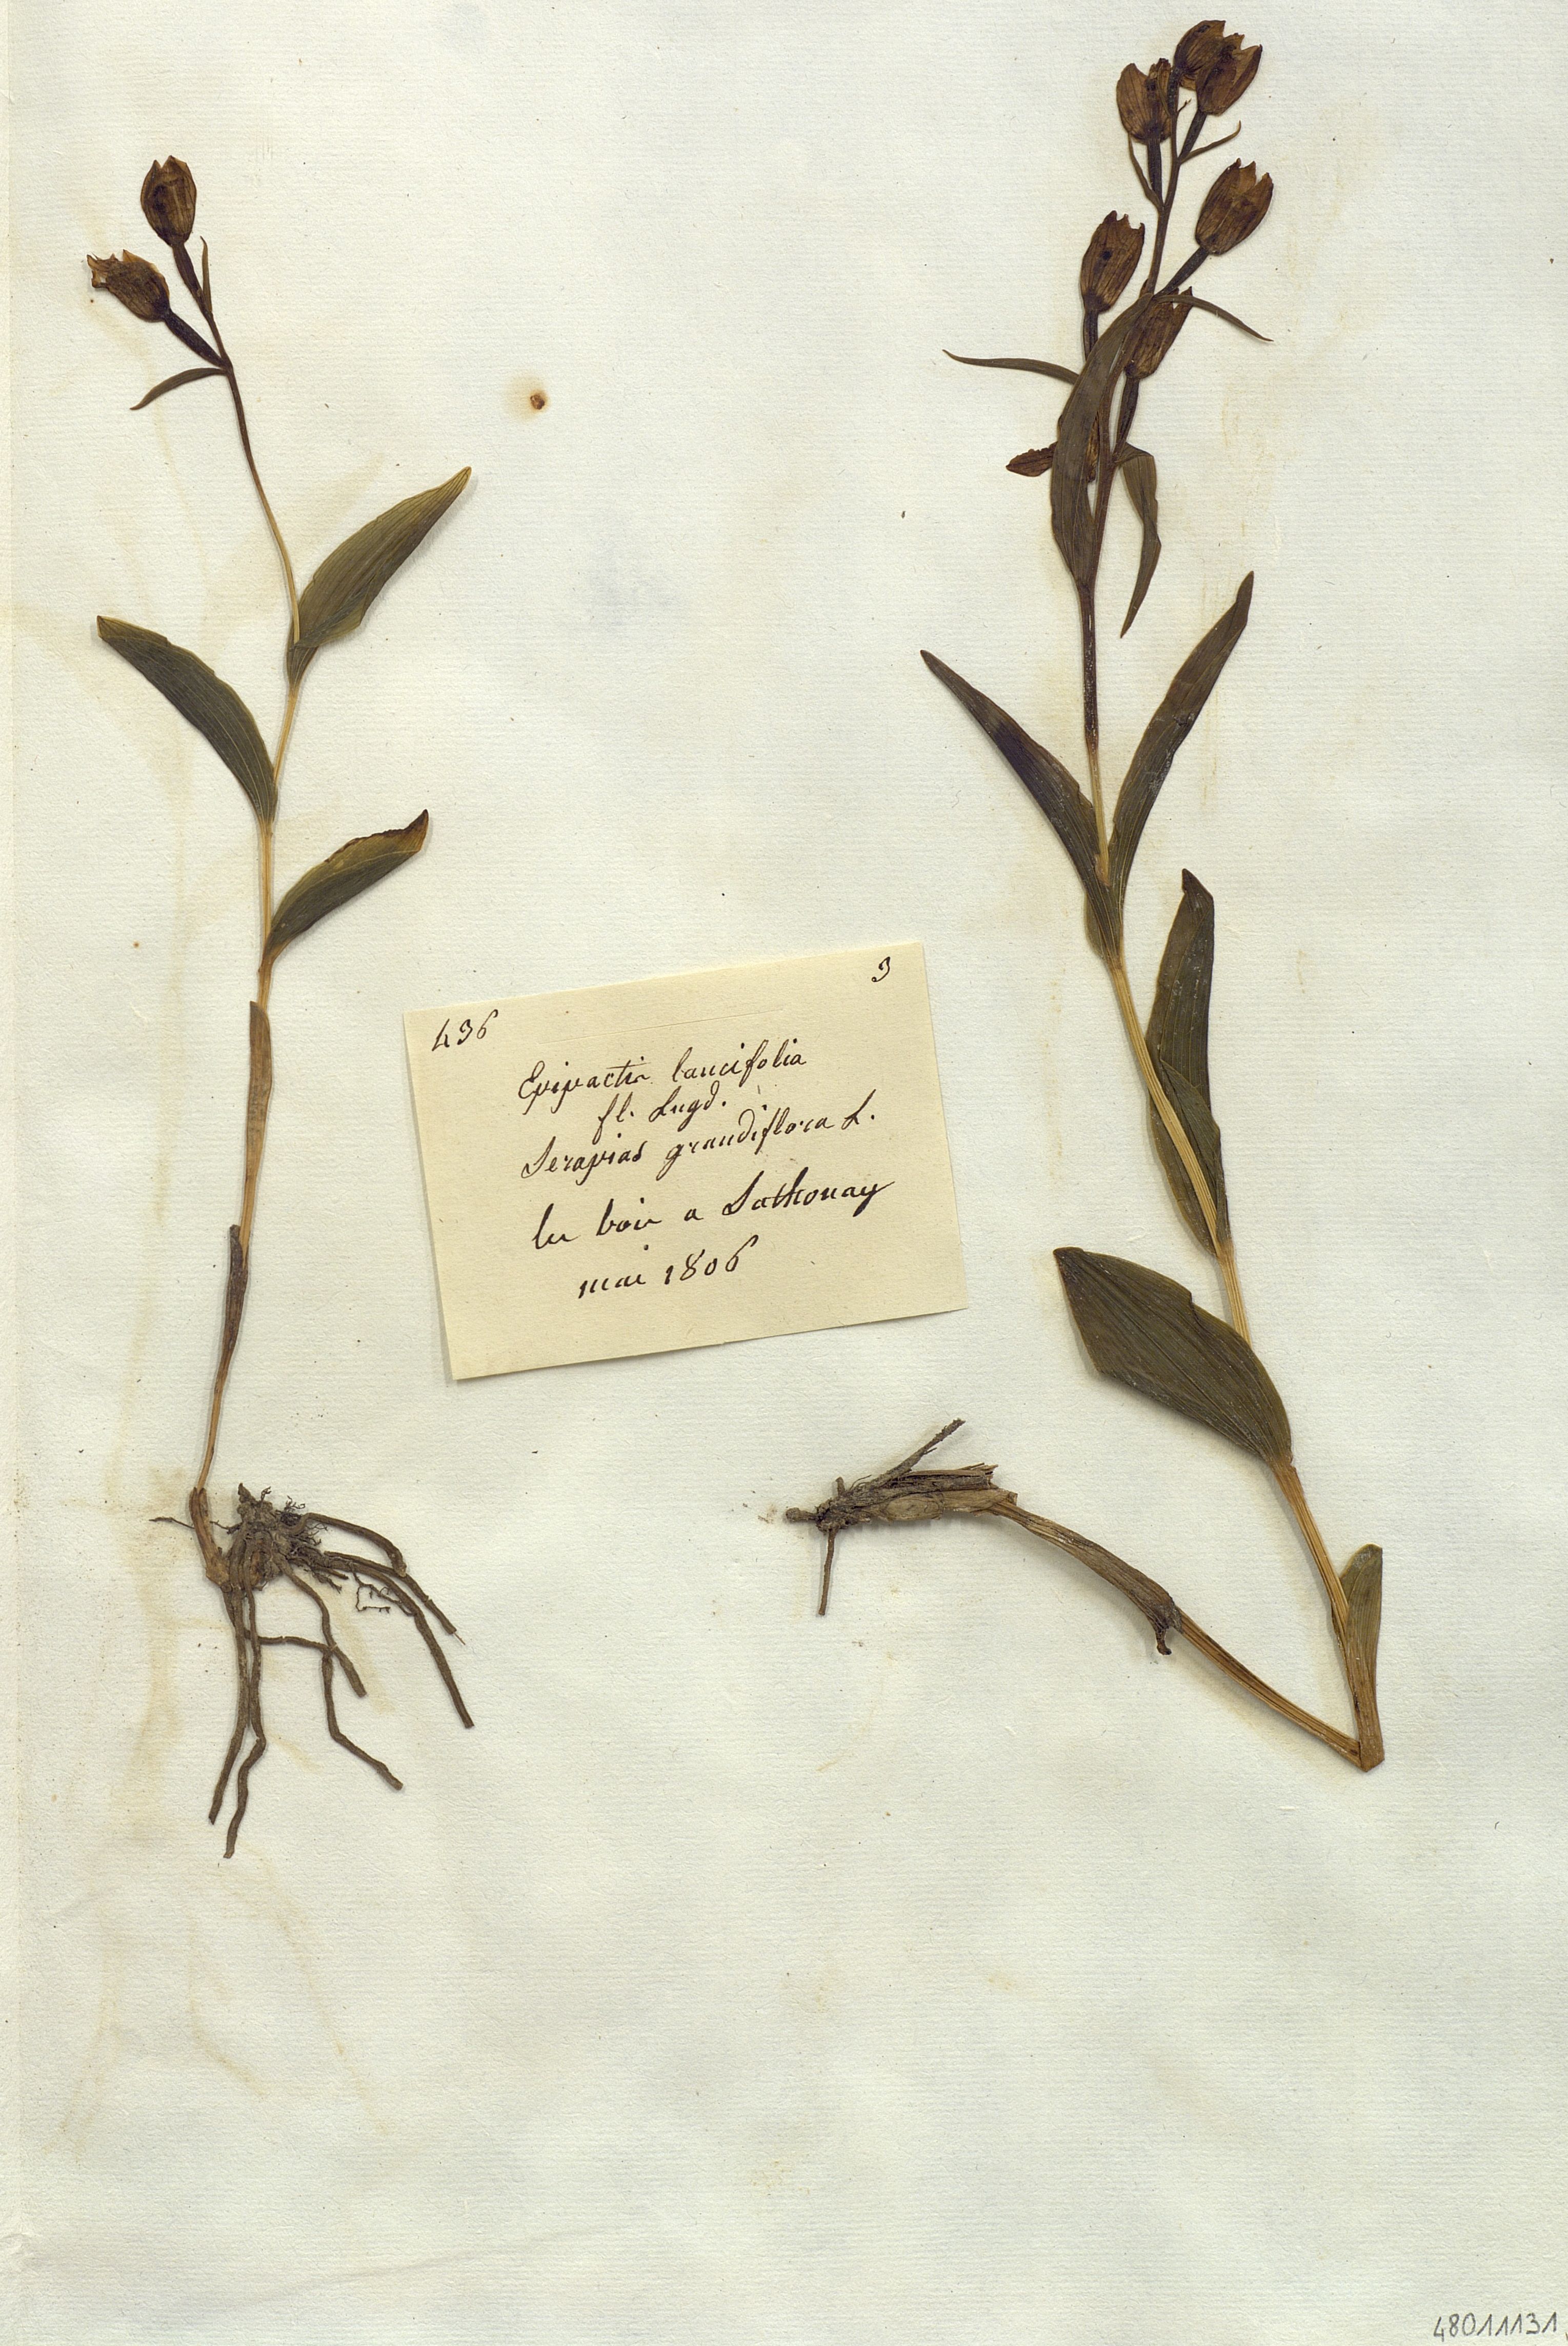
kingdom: Plantae
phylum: Tracheophyta
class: Liliopsida
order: Asparagales
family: Orchidaceae
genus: Cephalanthera
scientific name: Cephalanthera damasonium
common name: White helleborine
